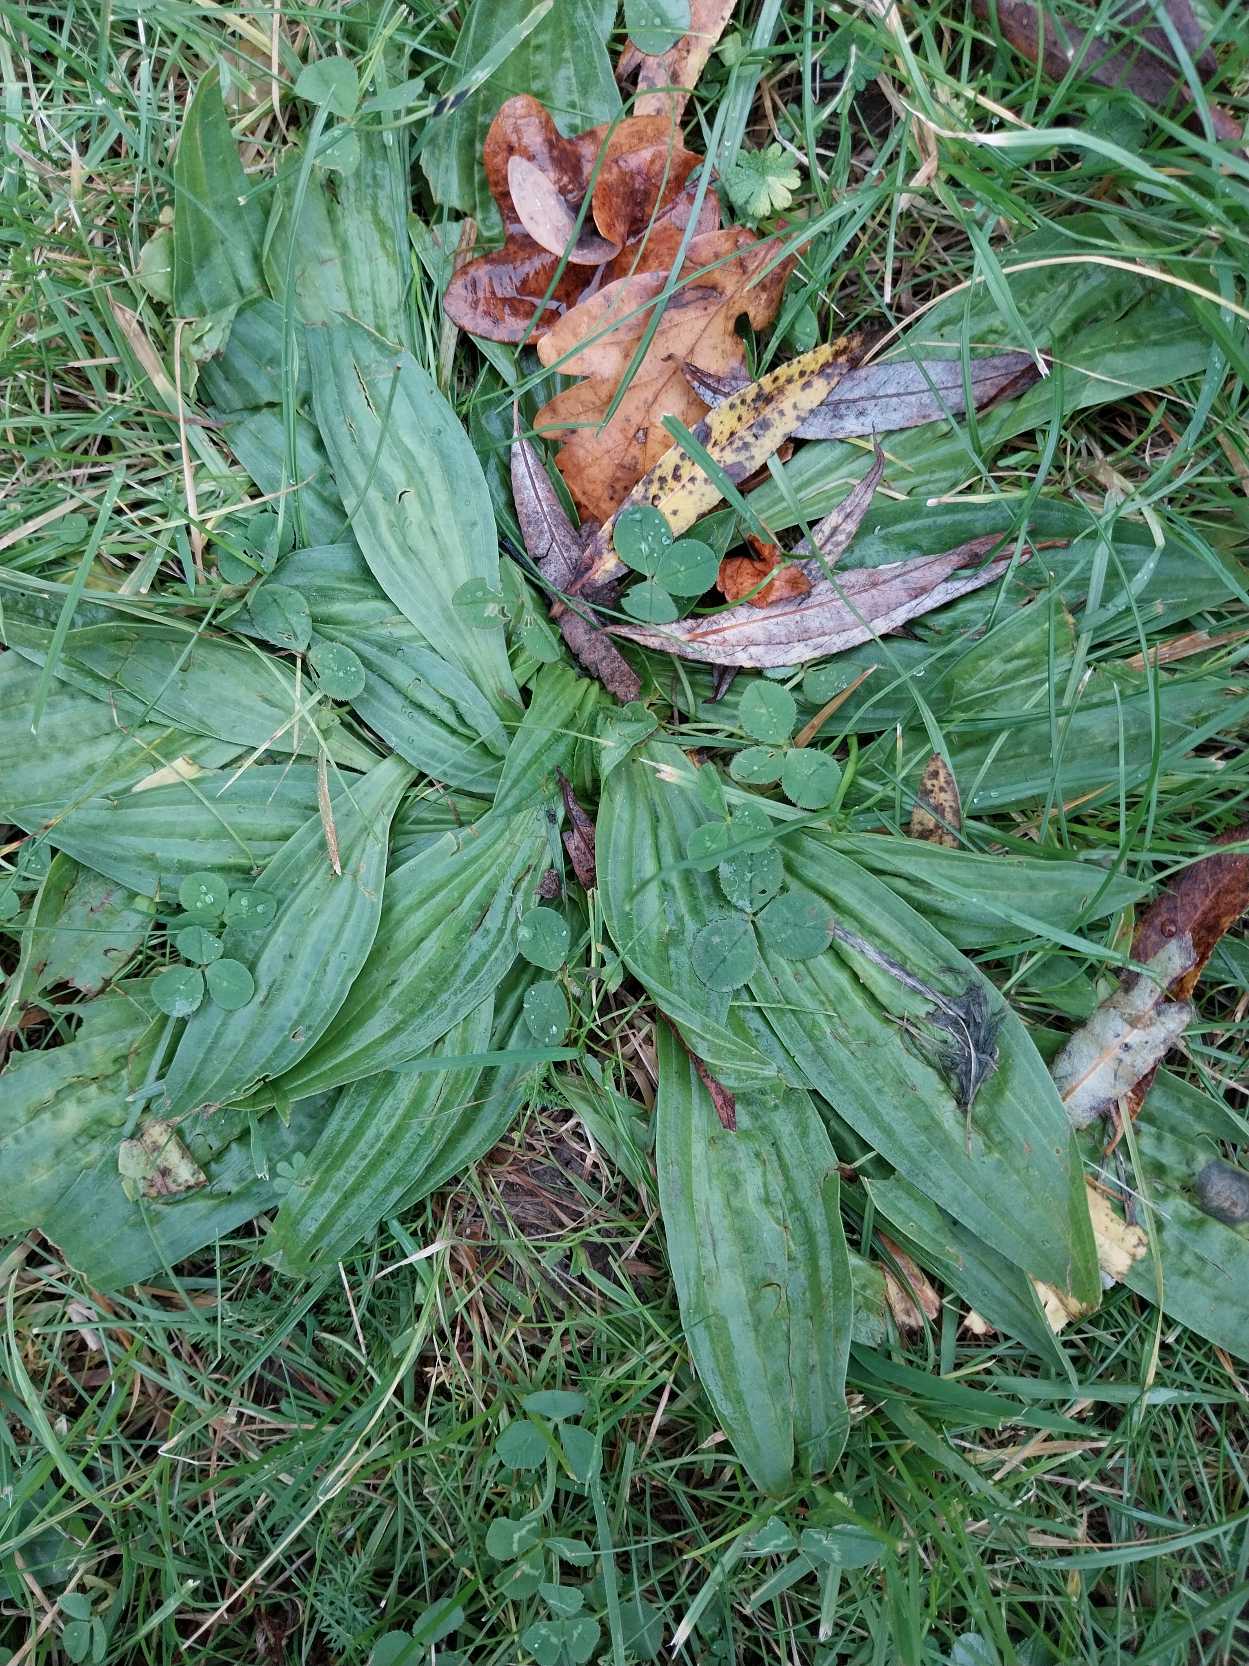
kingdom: Plantae
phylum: Tracheophyta
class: Magnoliopsida
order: Lamiales
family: Plantaginaceae
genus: Plantago
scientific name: Plantago lanceolata
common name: Lancet-vejbred
